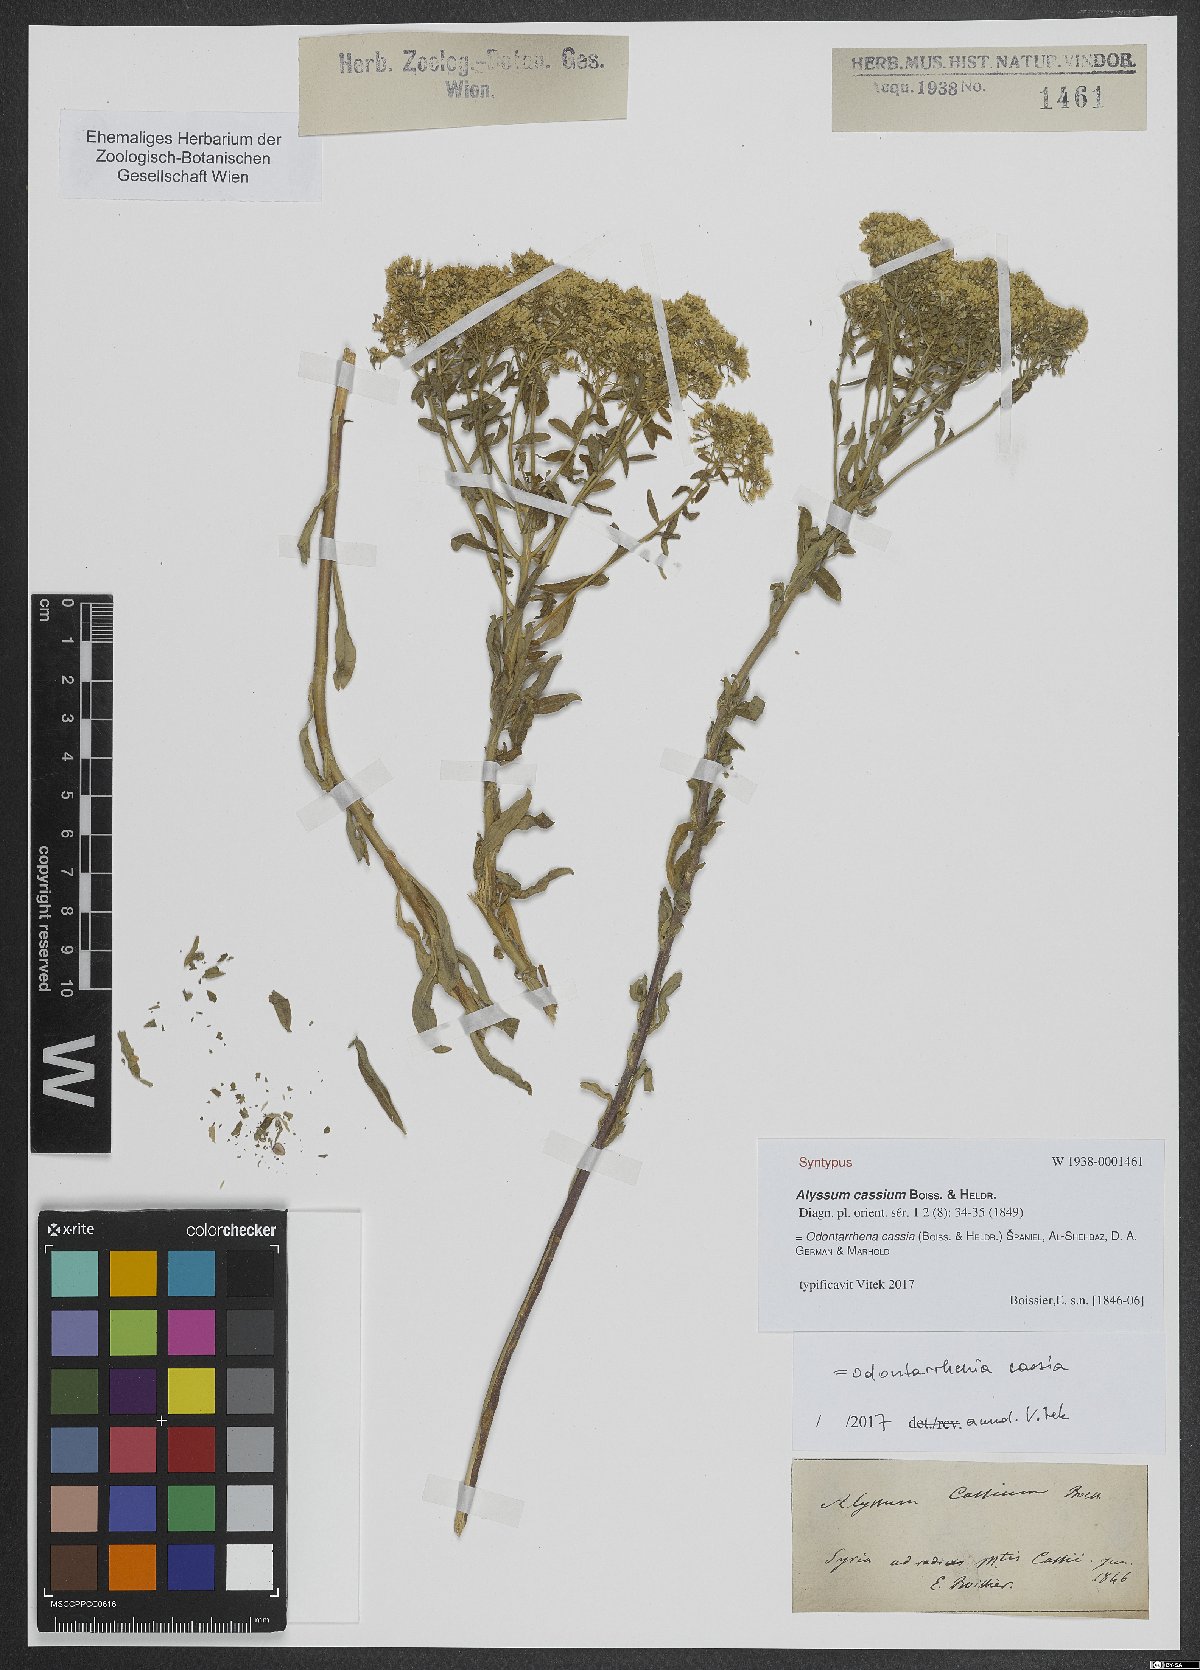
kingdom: Plantae
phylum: Tracheophyta
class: Magnoliopsida
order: Brassicales
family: Brassicaceae
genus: Odontarrhena
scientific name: Odontarrhena cassia
